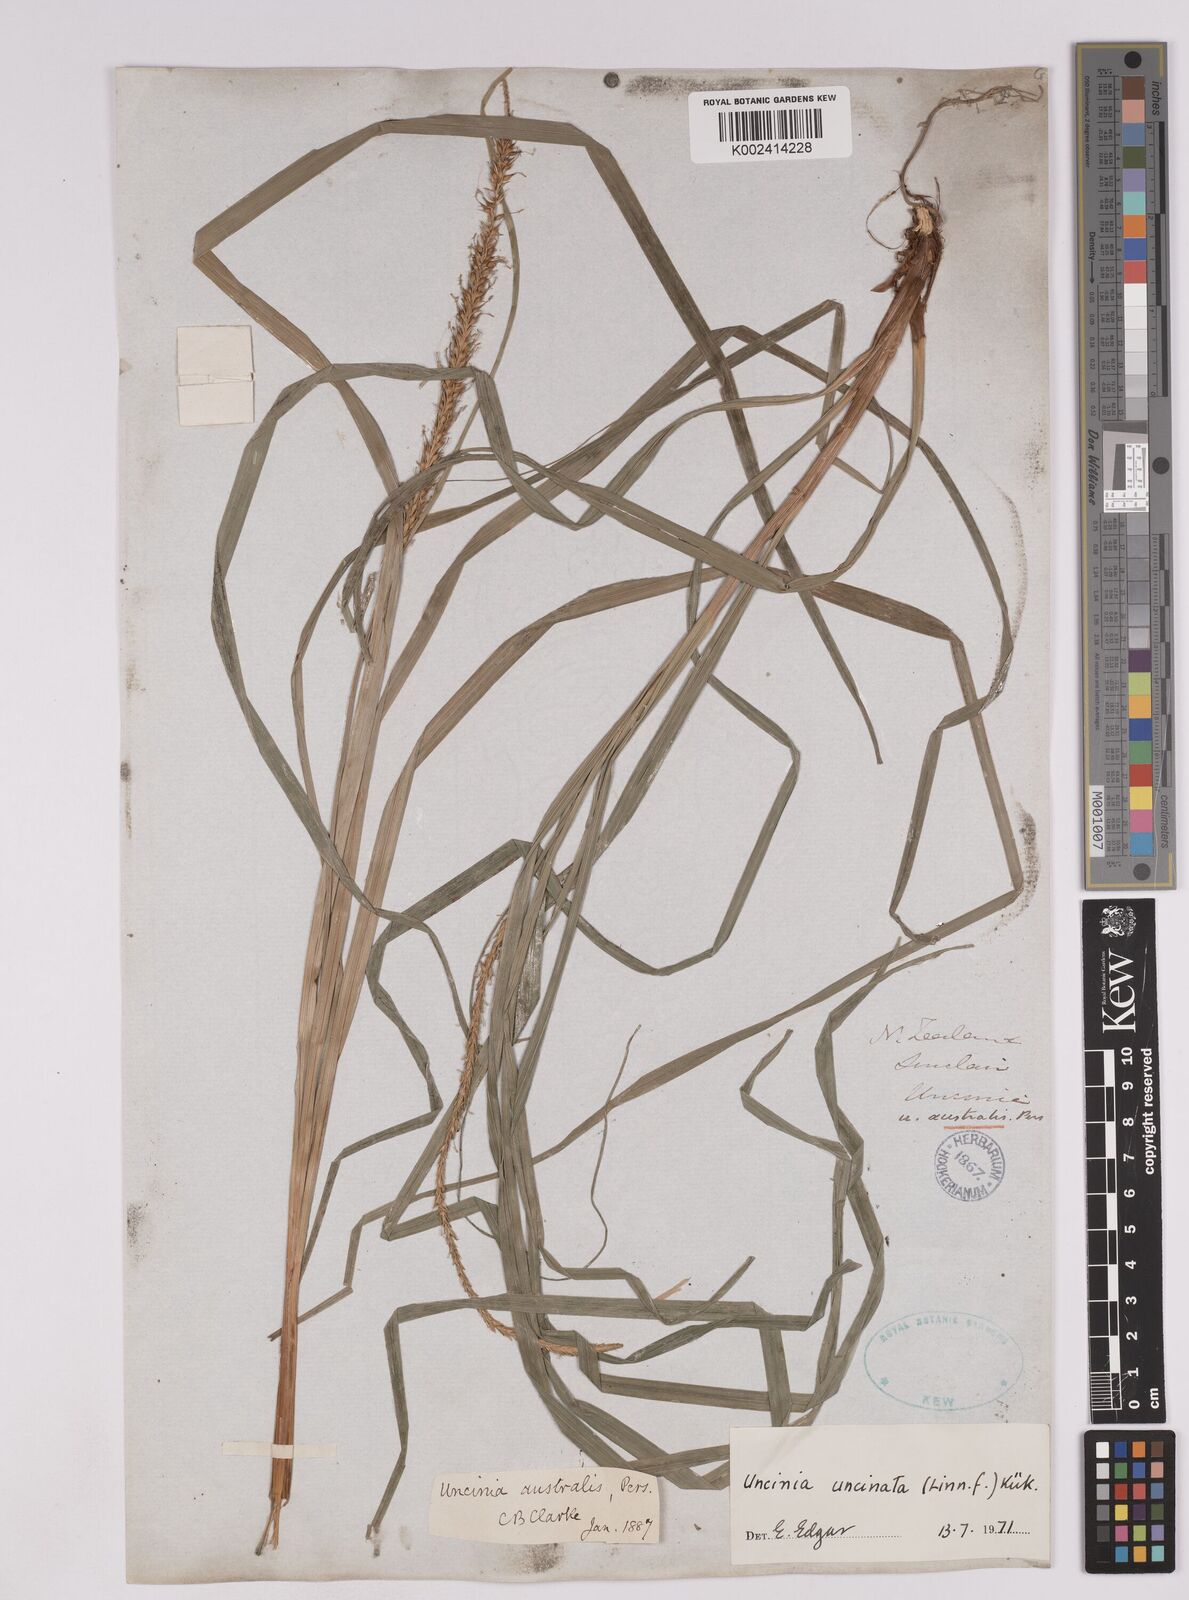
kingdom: Plantae
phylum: Tracheophyta
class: Liliopsida
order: Poales
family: Cyperaceae
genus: Carex
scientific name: Carex uncinata
